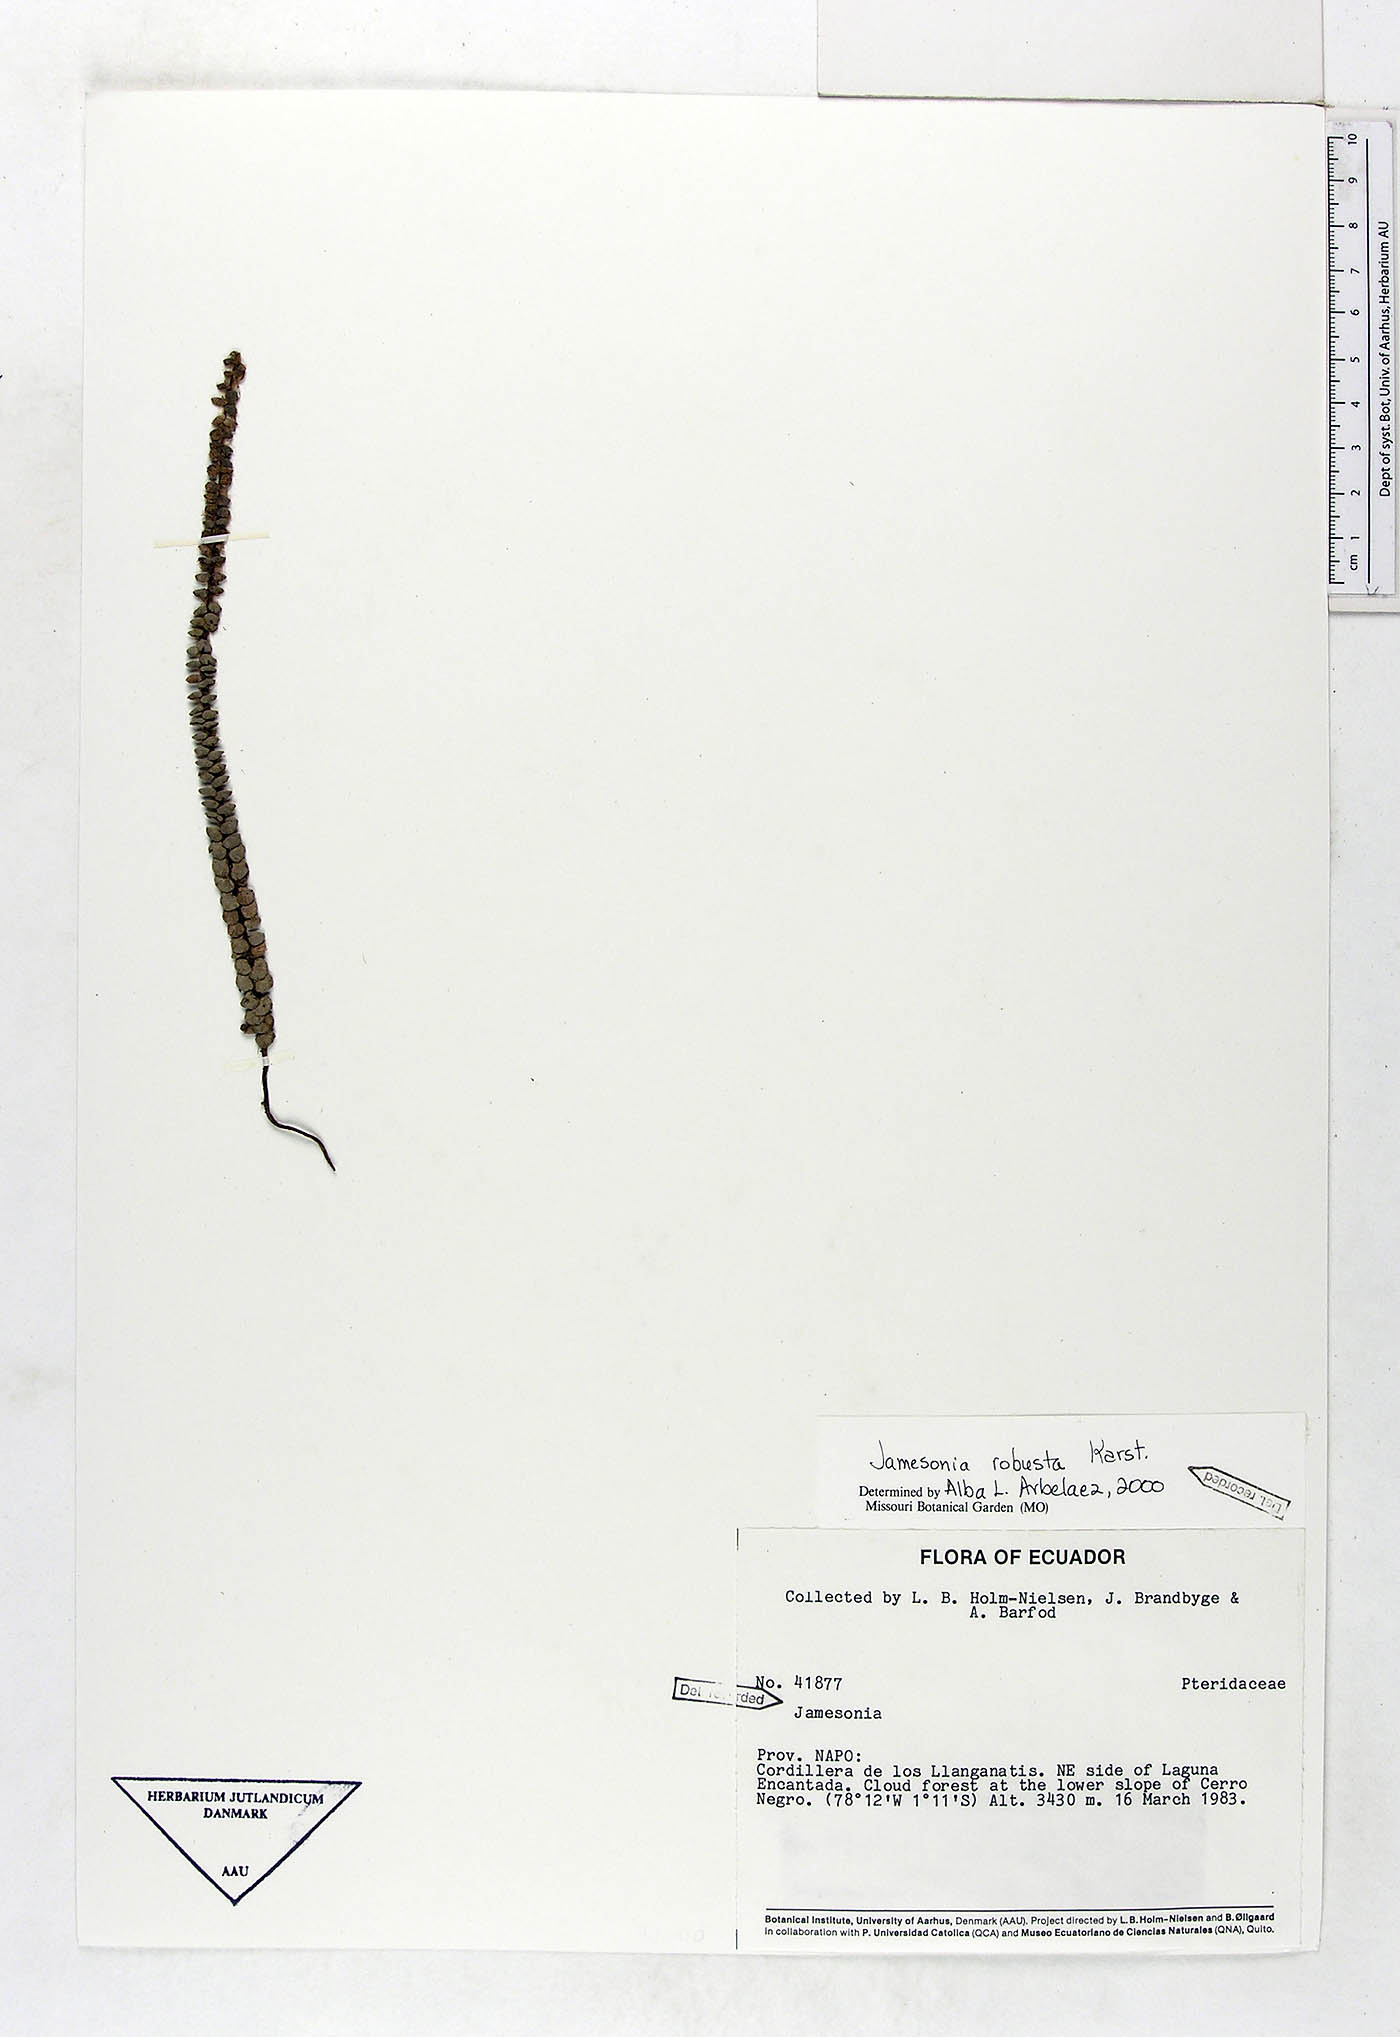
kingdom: Plantae
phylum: Tracheophyta
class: Polypodiopsida
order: Polypodiales
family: Pteridaceae
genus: Jamesonia
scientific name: Jamesonia robusta
